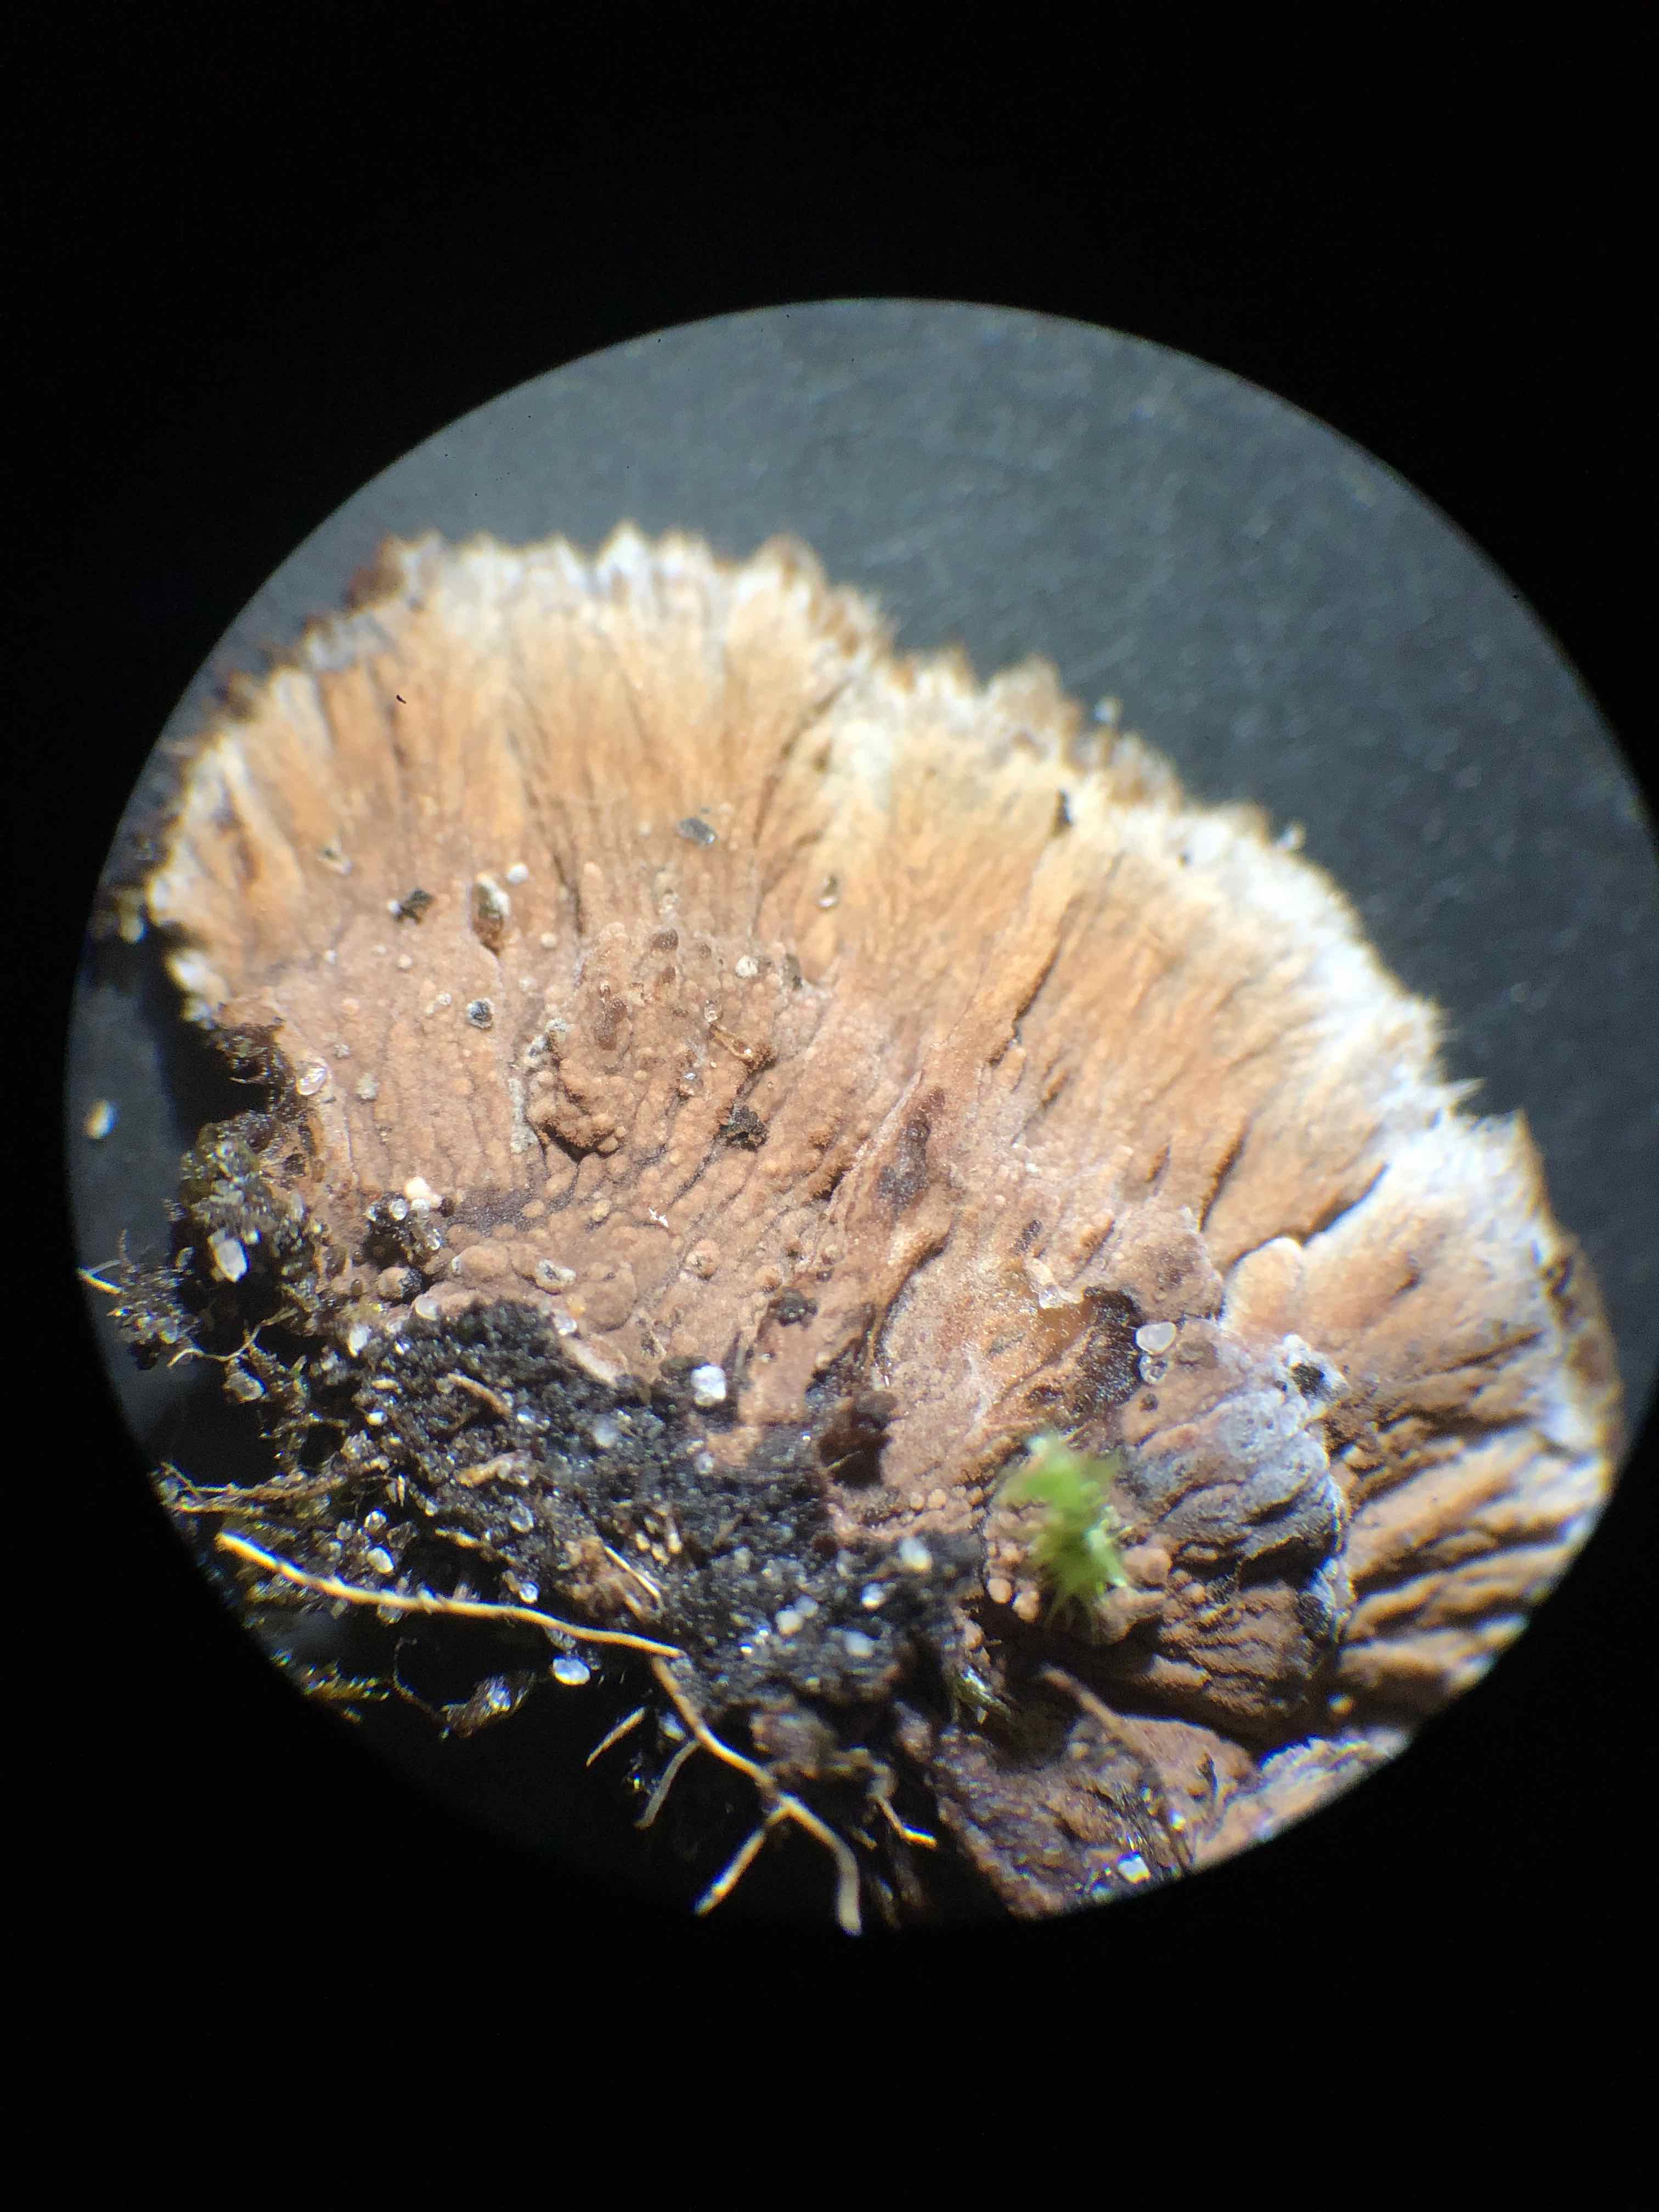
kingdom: Fungi
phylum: Basidiomycota
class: Agaricomycetes
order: Thelephorales
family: Thelephoraceae
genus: Thelephora
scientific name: Thelephora terrestris
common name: fliget frynsesvamp
